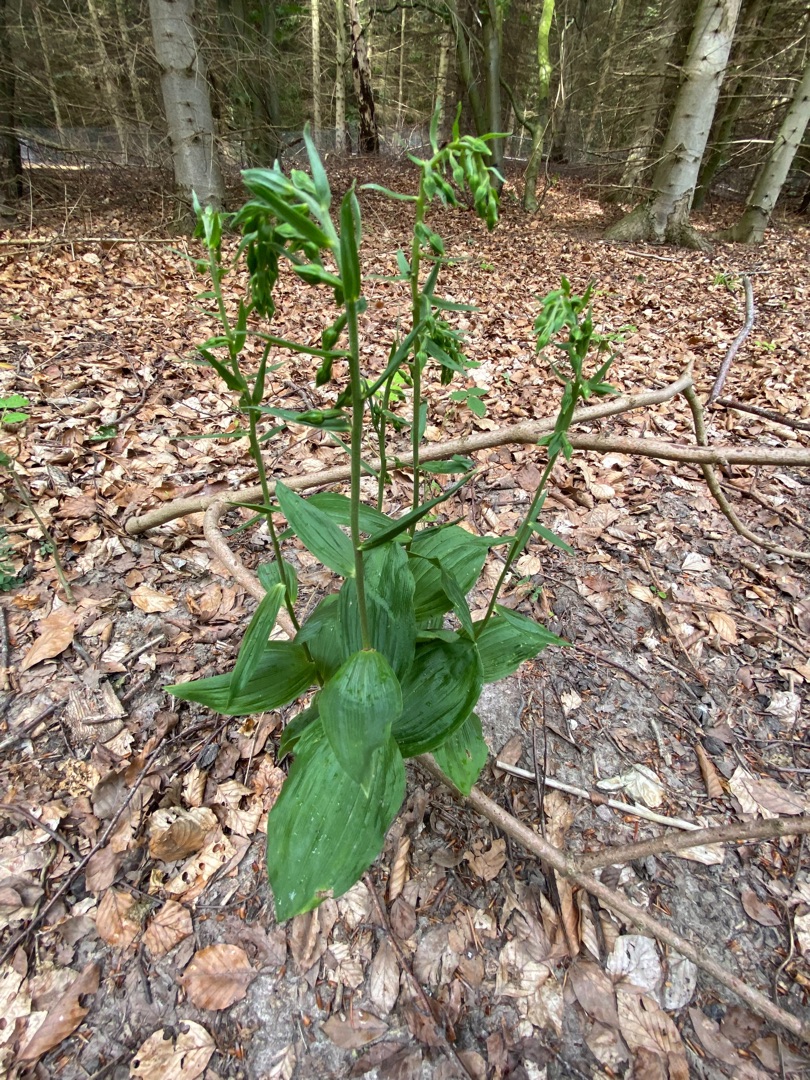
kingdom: Plantae
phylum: Tracheophyta
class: Liliopsida
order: Asparagales
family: Orchidaceae
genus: Epipactis
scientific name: Epipactis helleborine
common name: Skov-hullæbe
